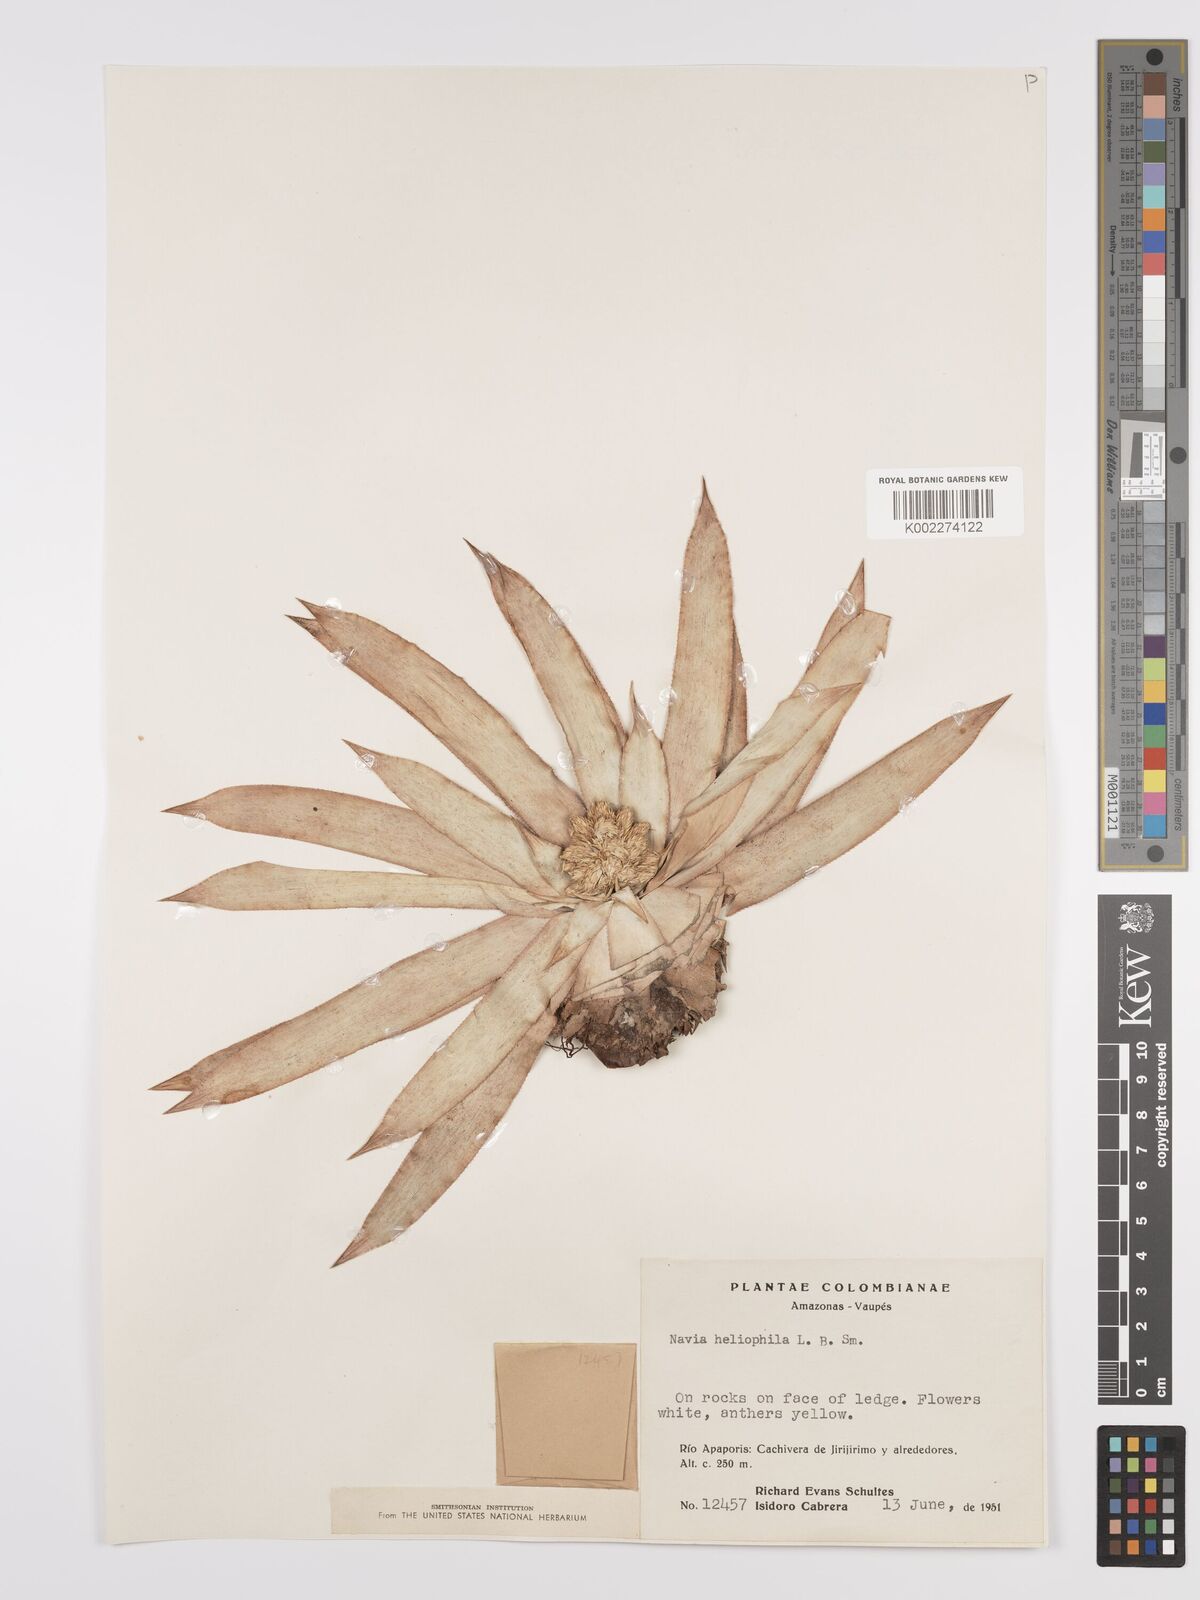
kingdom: Plantae
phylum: Tracheophyta
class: Liliopsida
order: Poales
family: Bromeliaceae
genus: Navia
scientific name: Navia heliophila
